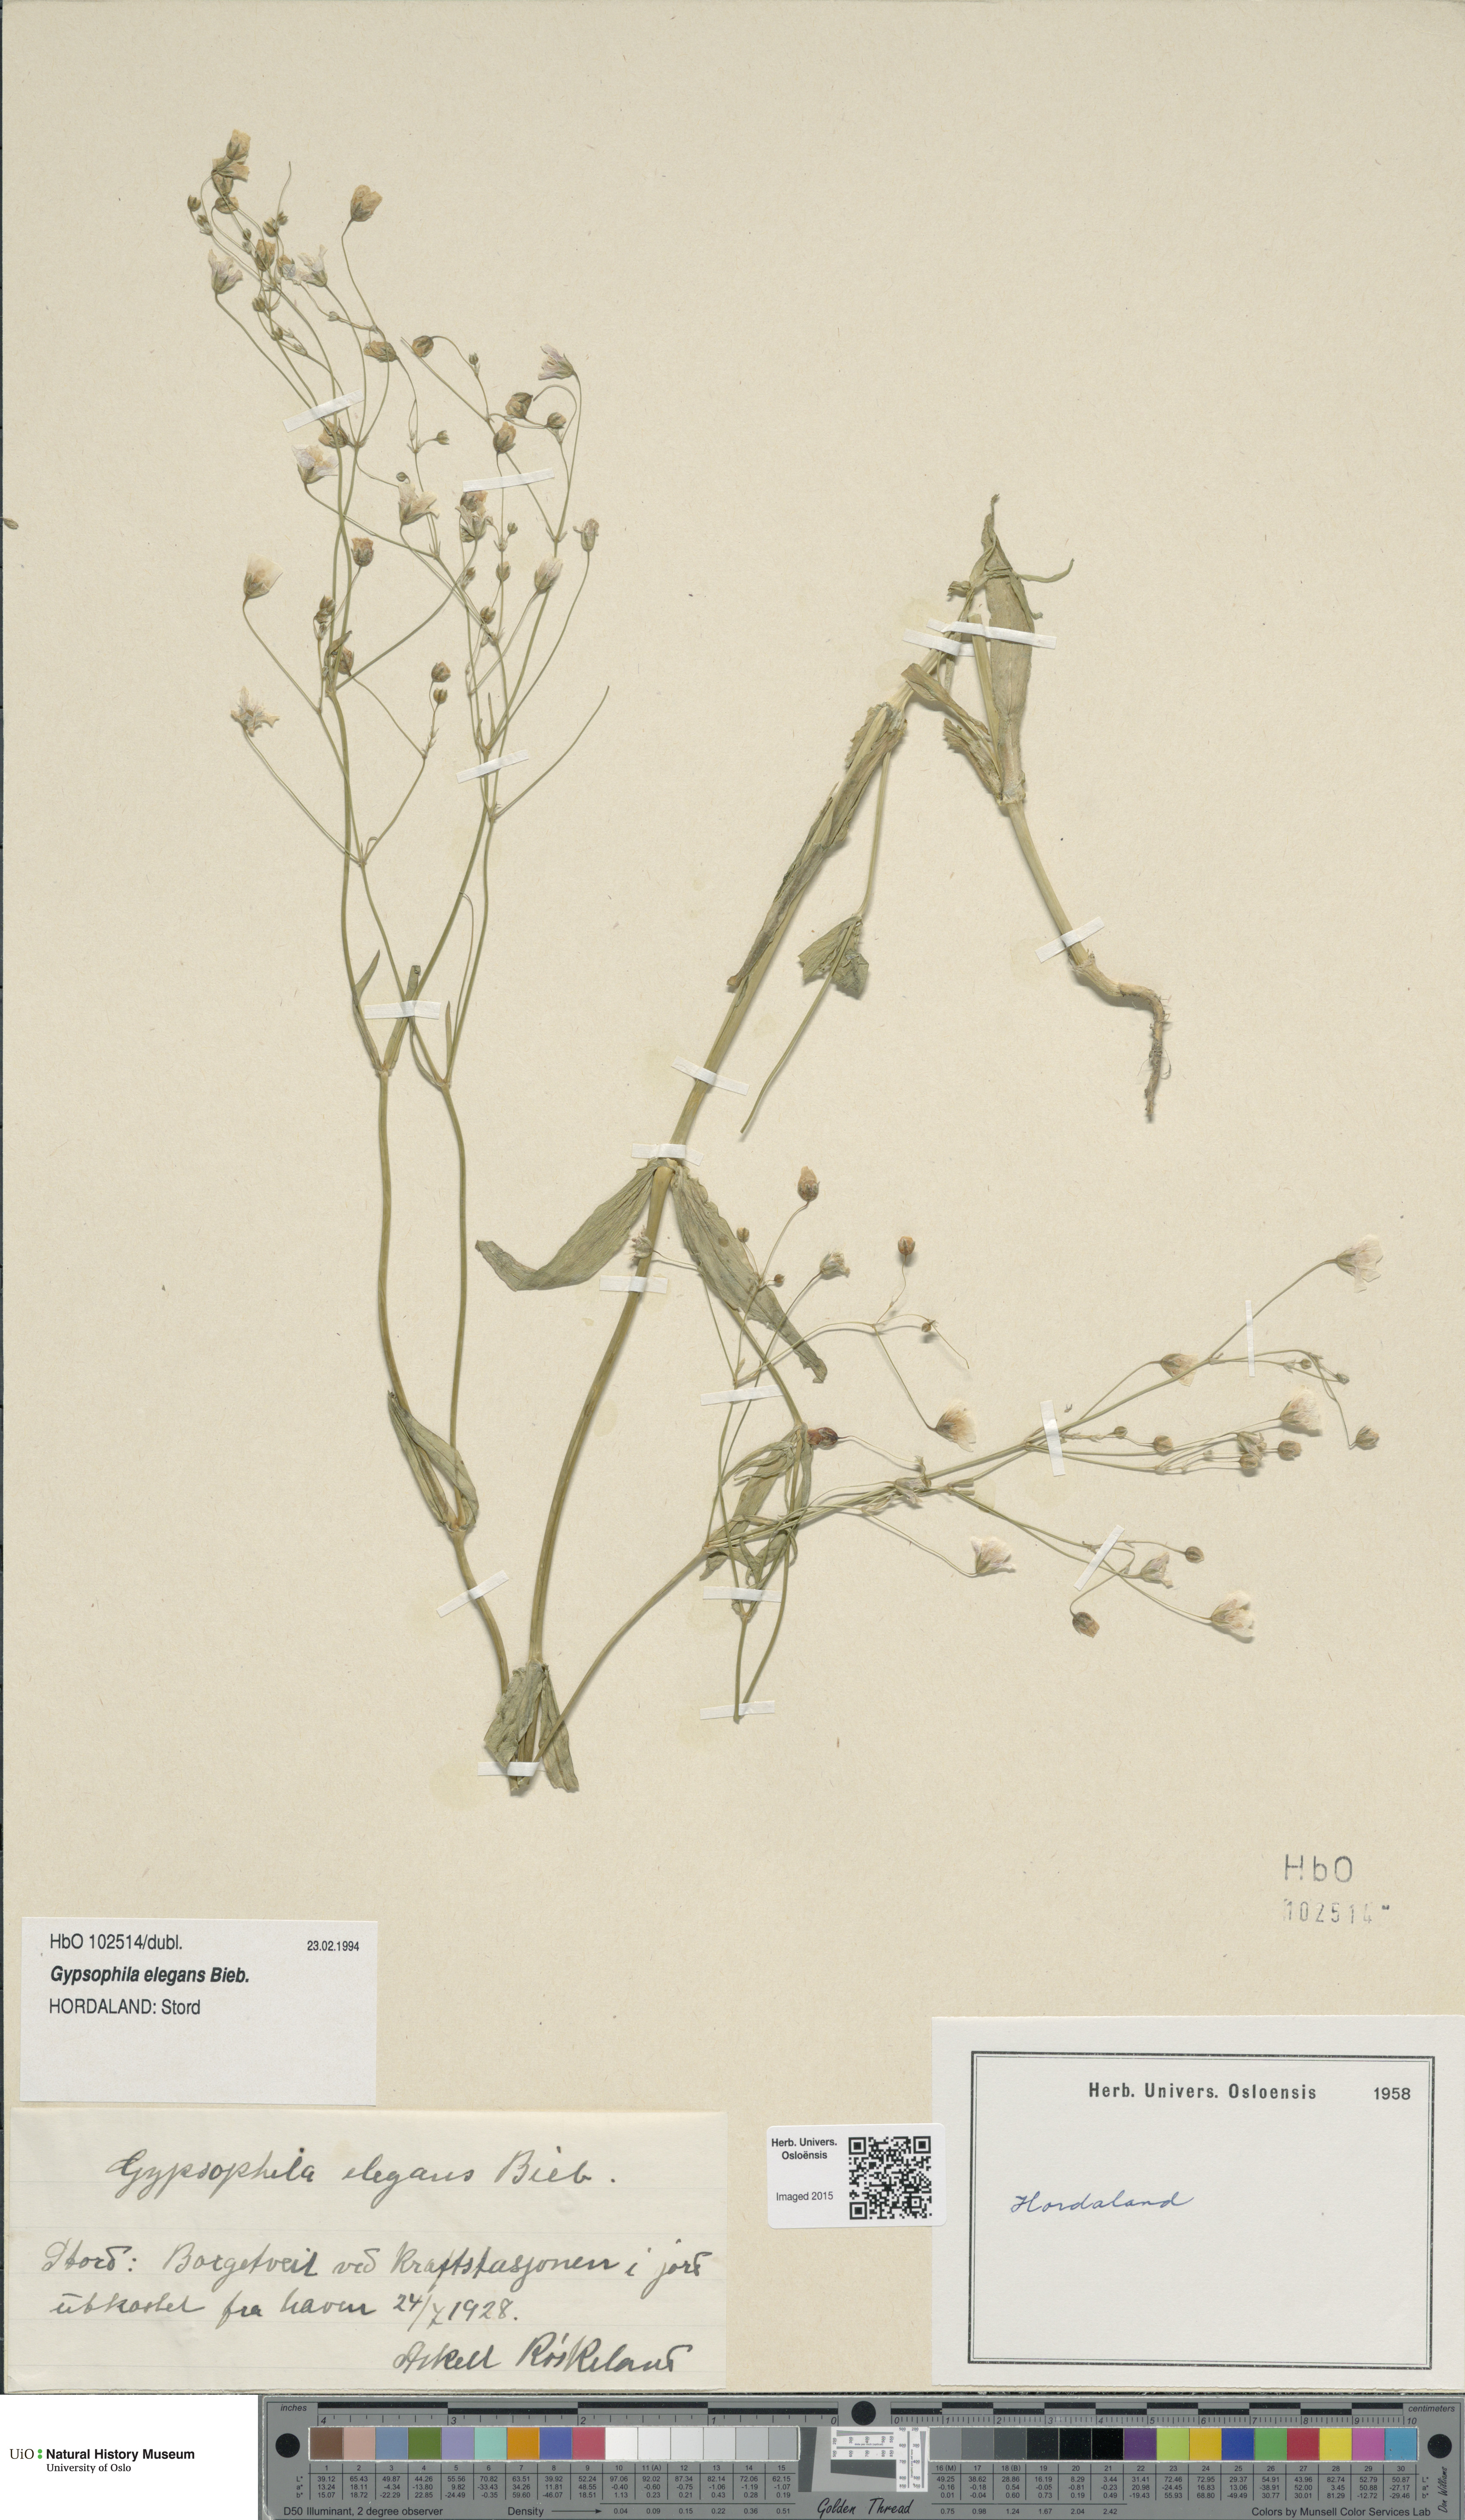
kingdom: Plantae
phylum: Tracheophyta
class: Magnoliopsida
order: Caryophyllales
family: Caryophyllaceae
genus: Gypsophila
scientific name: Gypsophila elegans
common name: Showy baby's-breath
